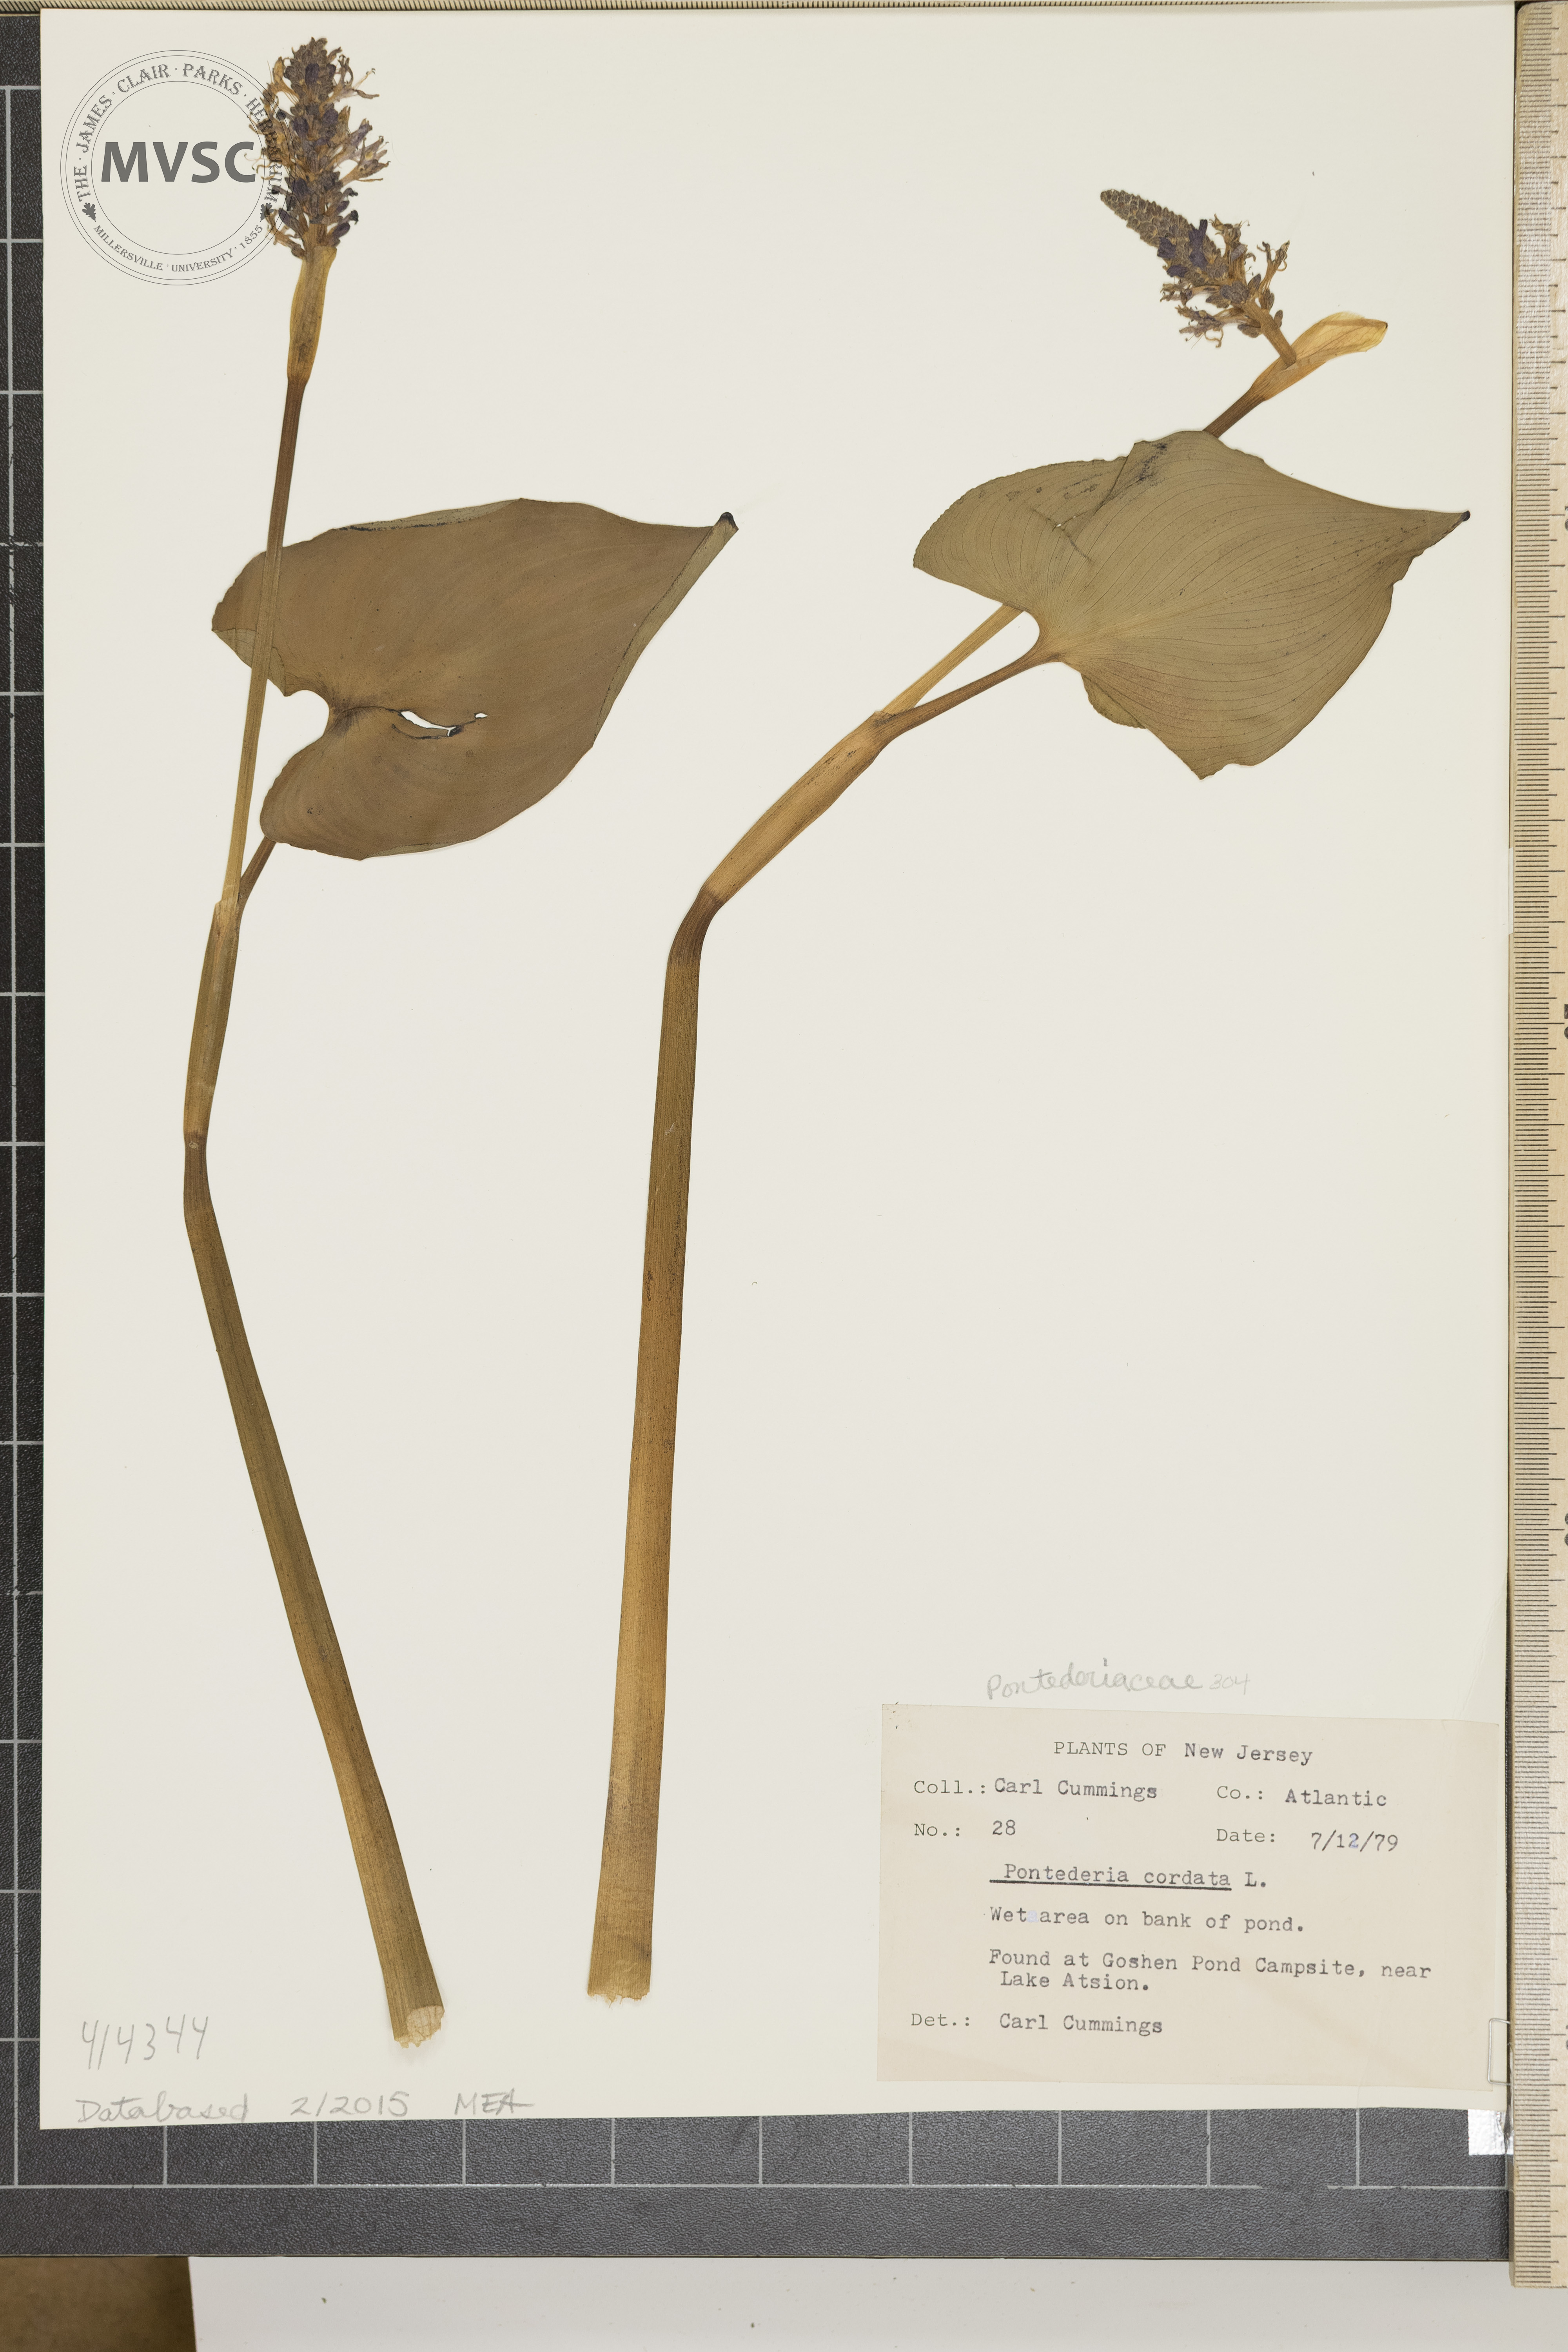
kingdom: Plantae
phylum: Tracheophyta
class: Liliopsida
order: Commelinales
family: Pontederiaceae
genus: Pontederia
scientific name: Pontederia cordata
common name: Pickerelweed
